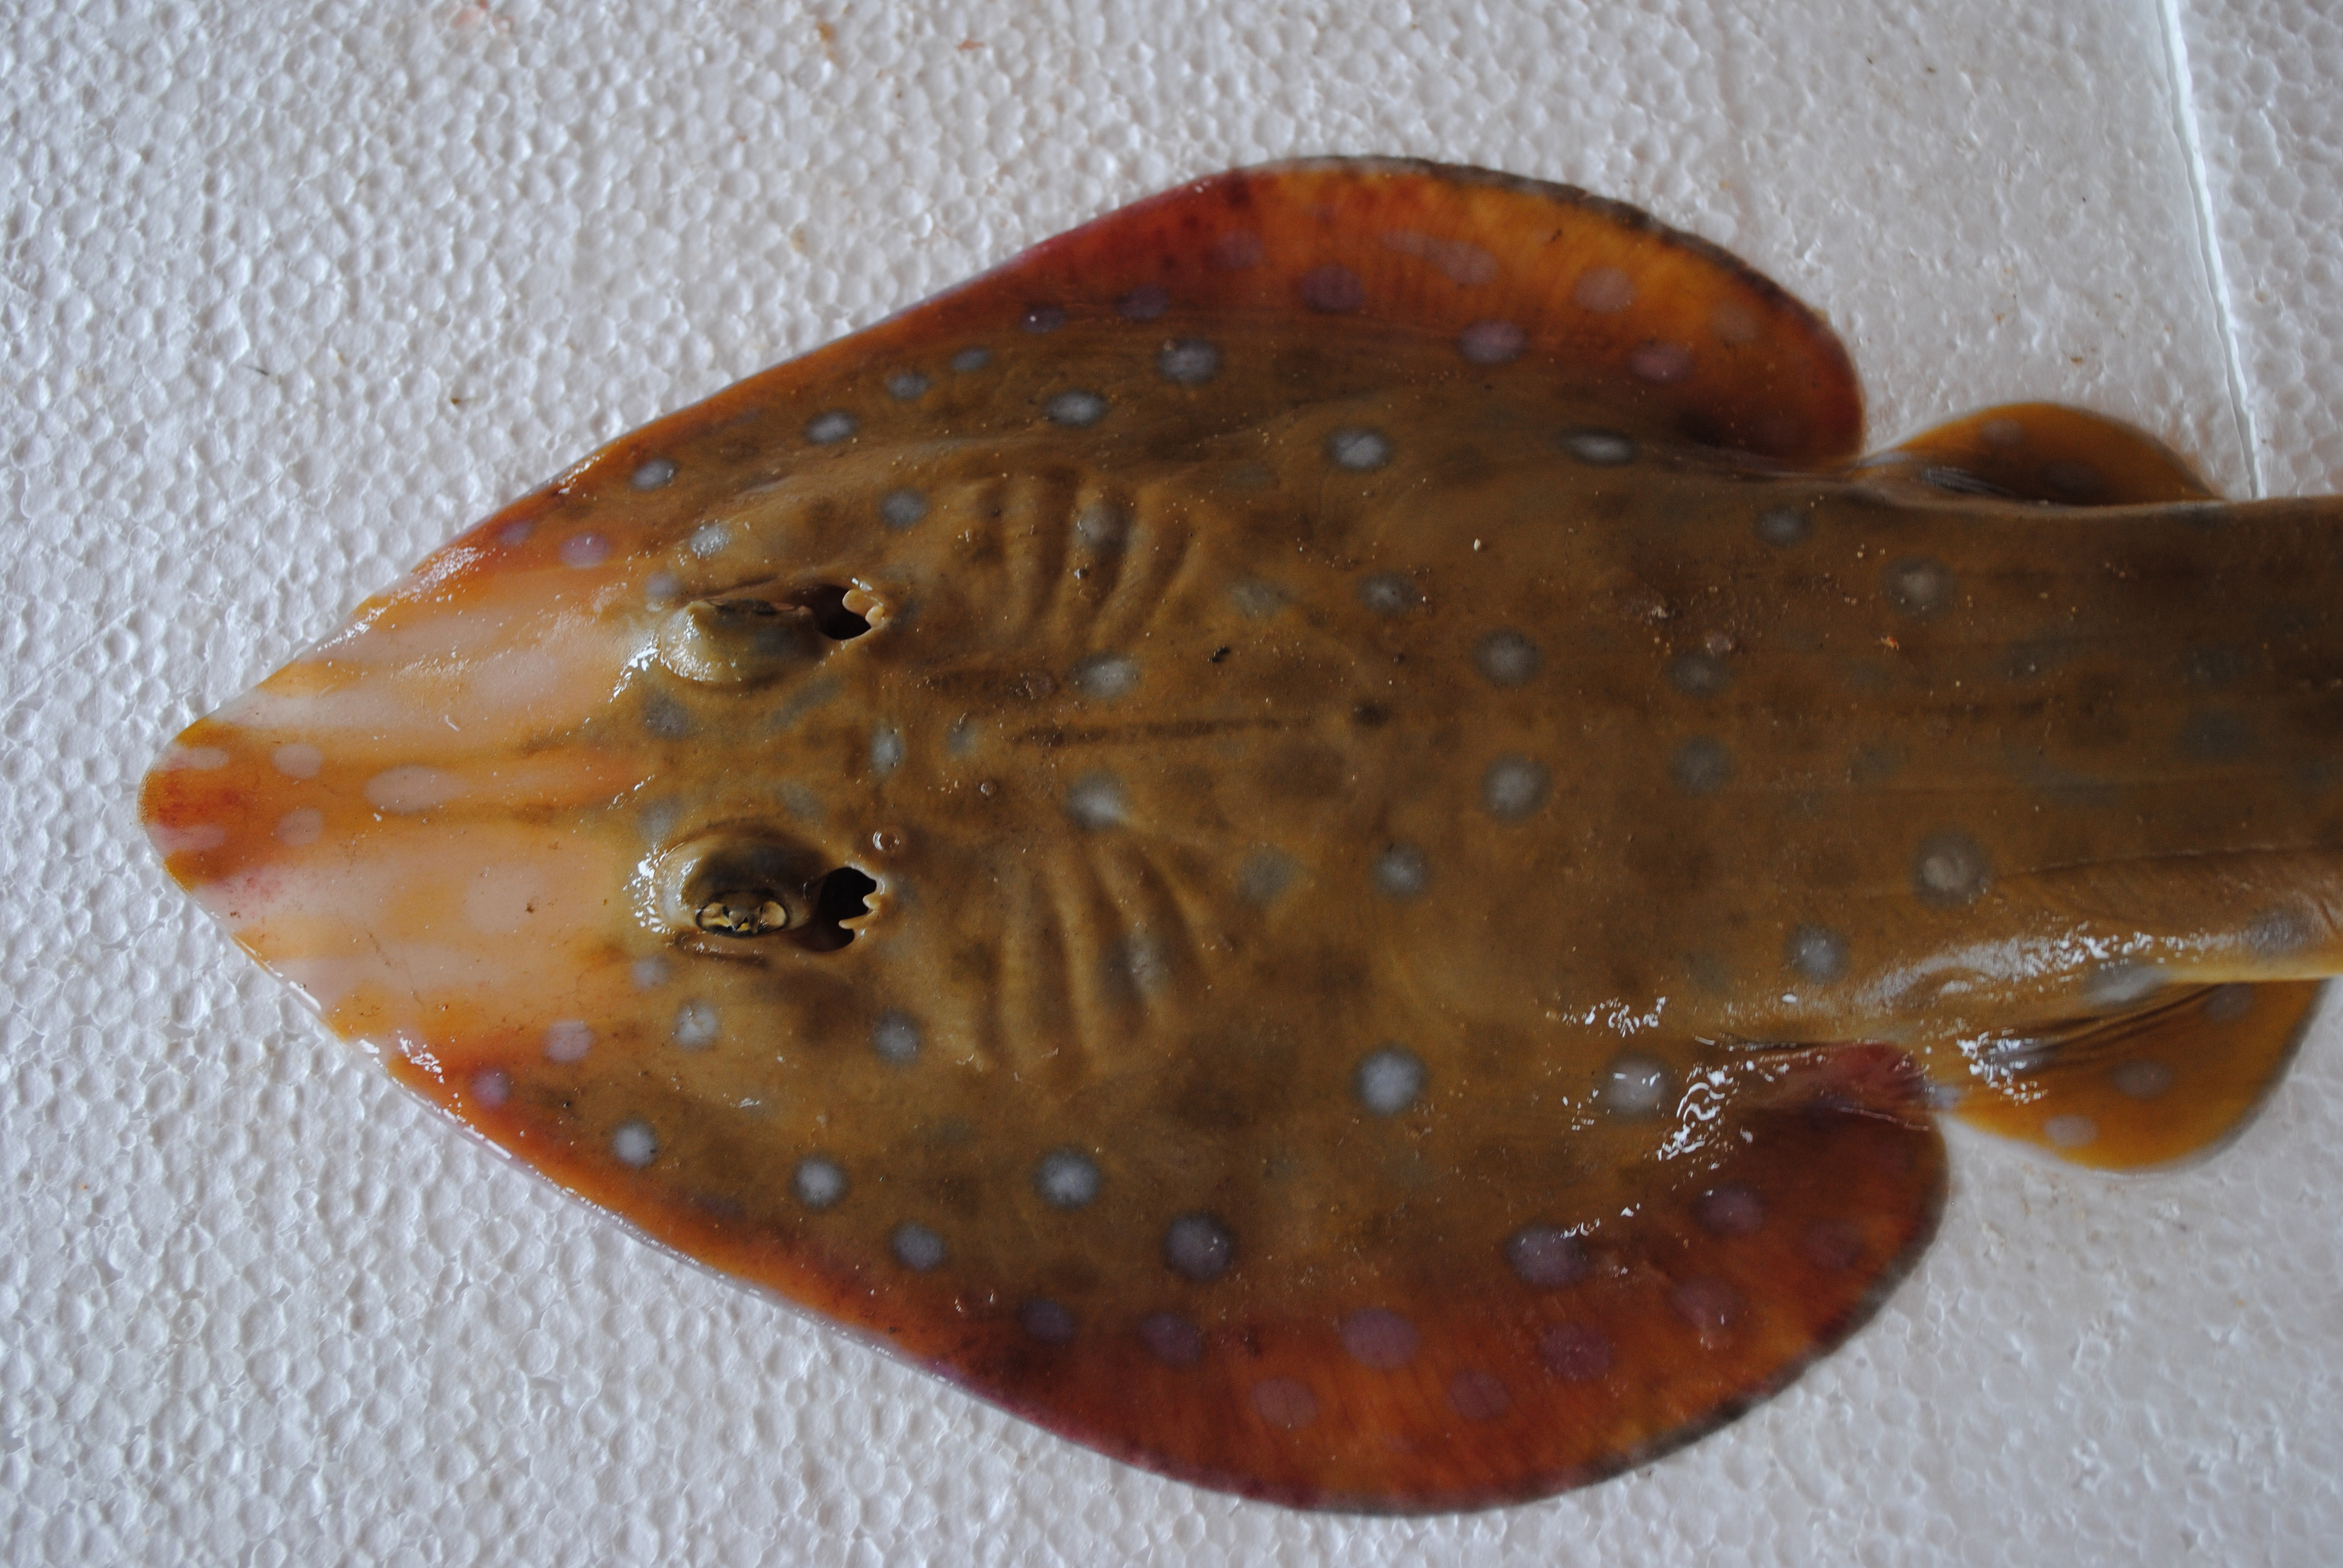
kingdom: Animalia
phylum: Chordata
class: Elasmobranchii
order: Rhinopristiformes
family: Rhinobatidae
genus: Acroteriobatus
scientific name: Acroteriobatus leucospilus
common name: Greyspot guitarfish
